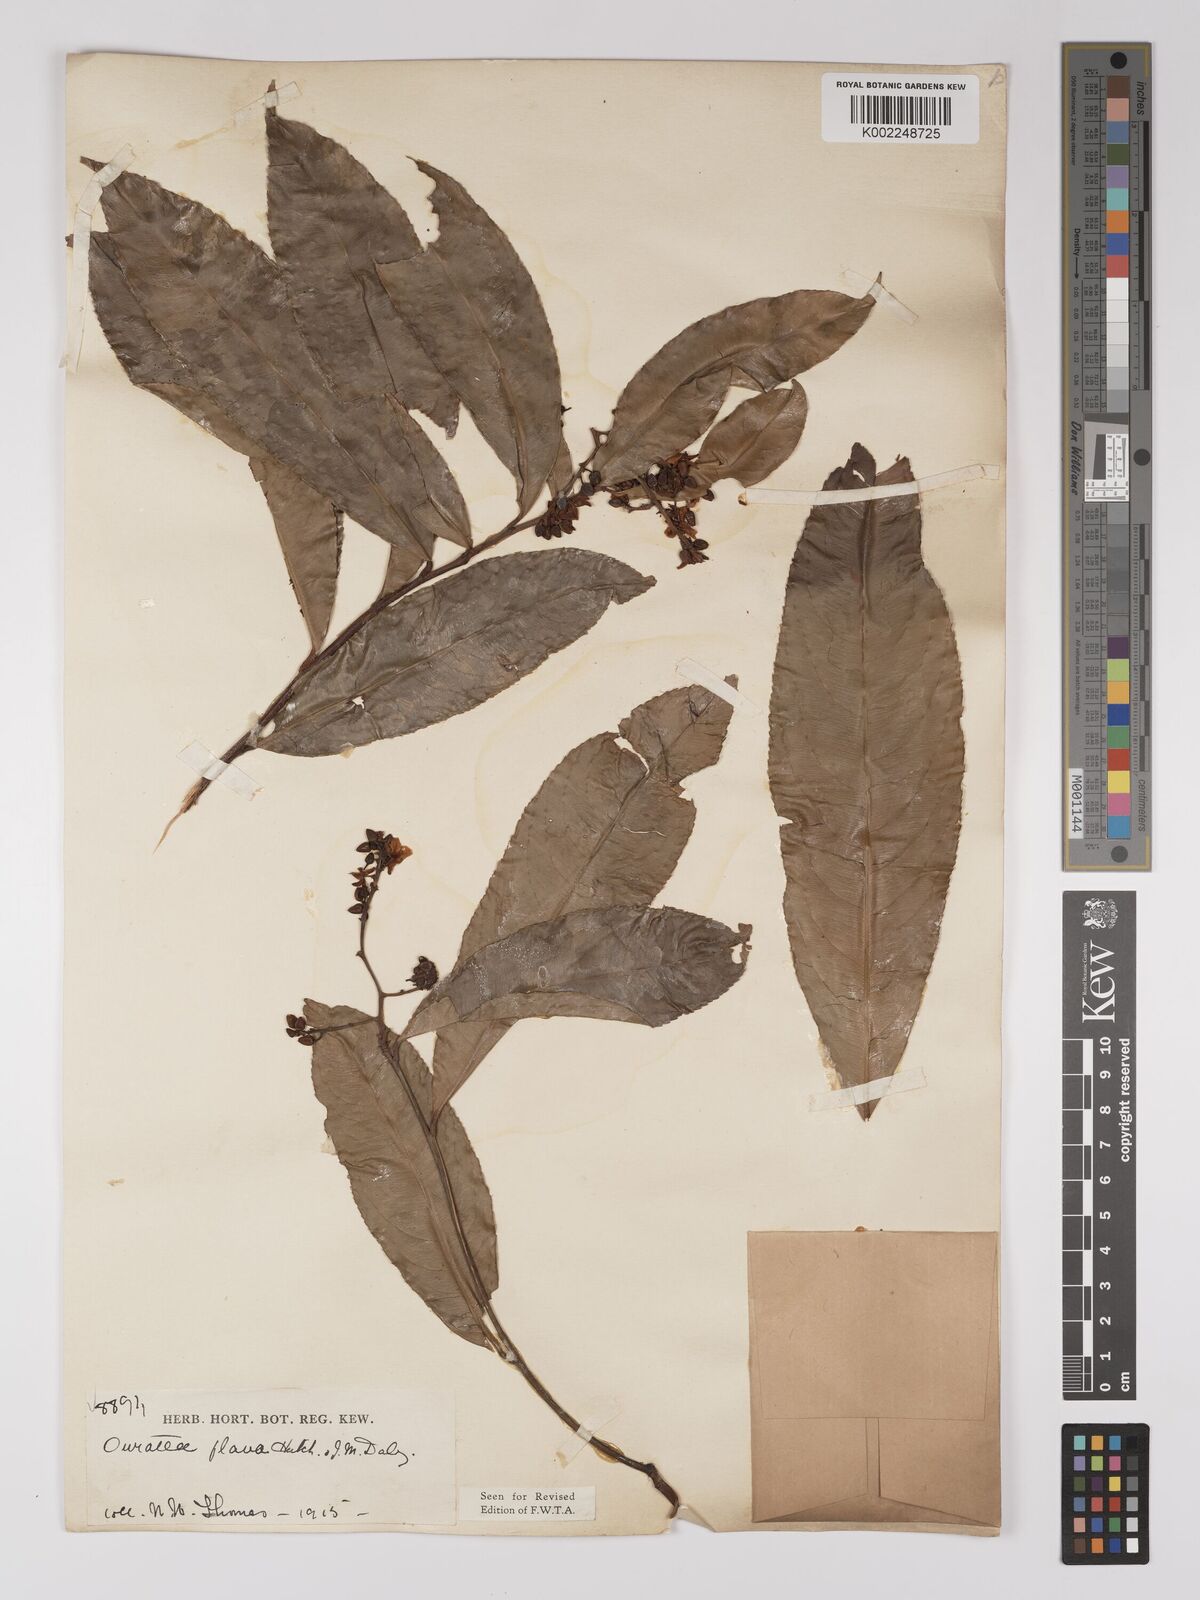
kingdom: Plantae
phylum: Tracheophyta
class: Magnoliopsida
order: Malpighiales
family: Ochnaceae
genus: Campylospermum
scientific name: Campylospermum flavum
